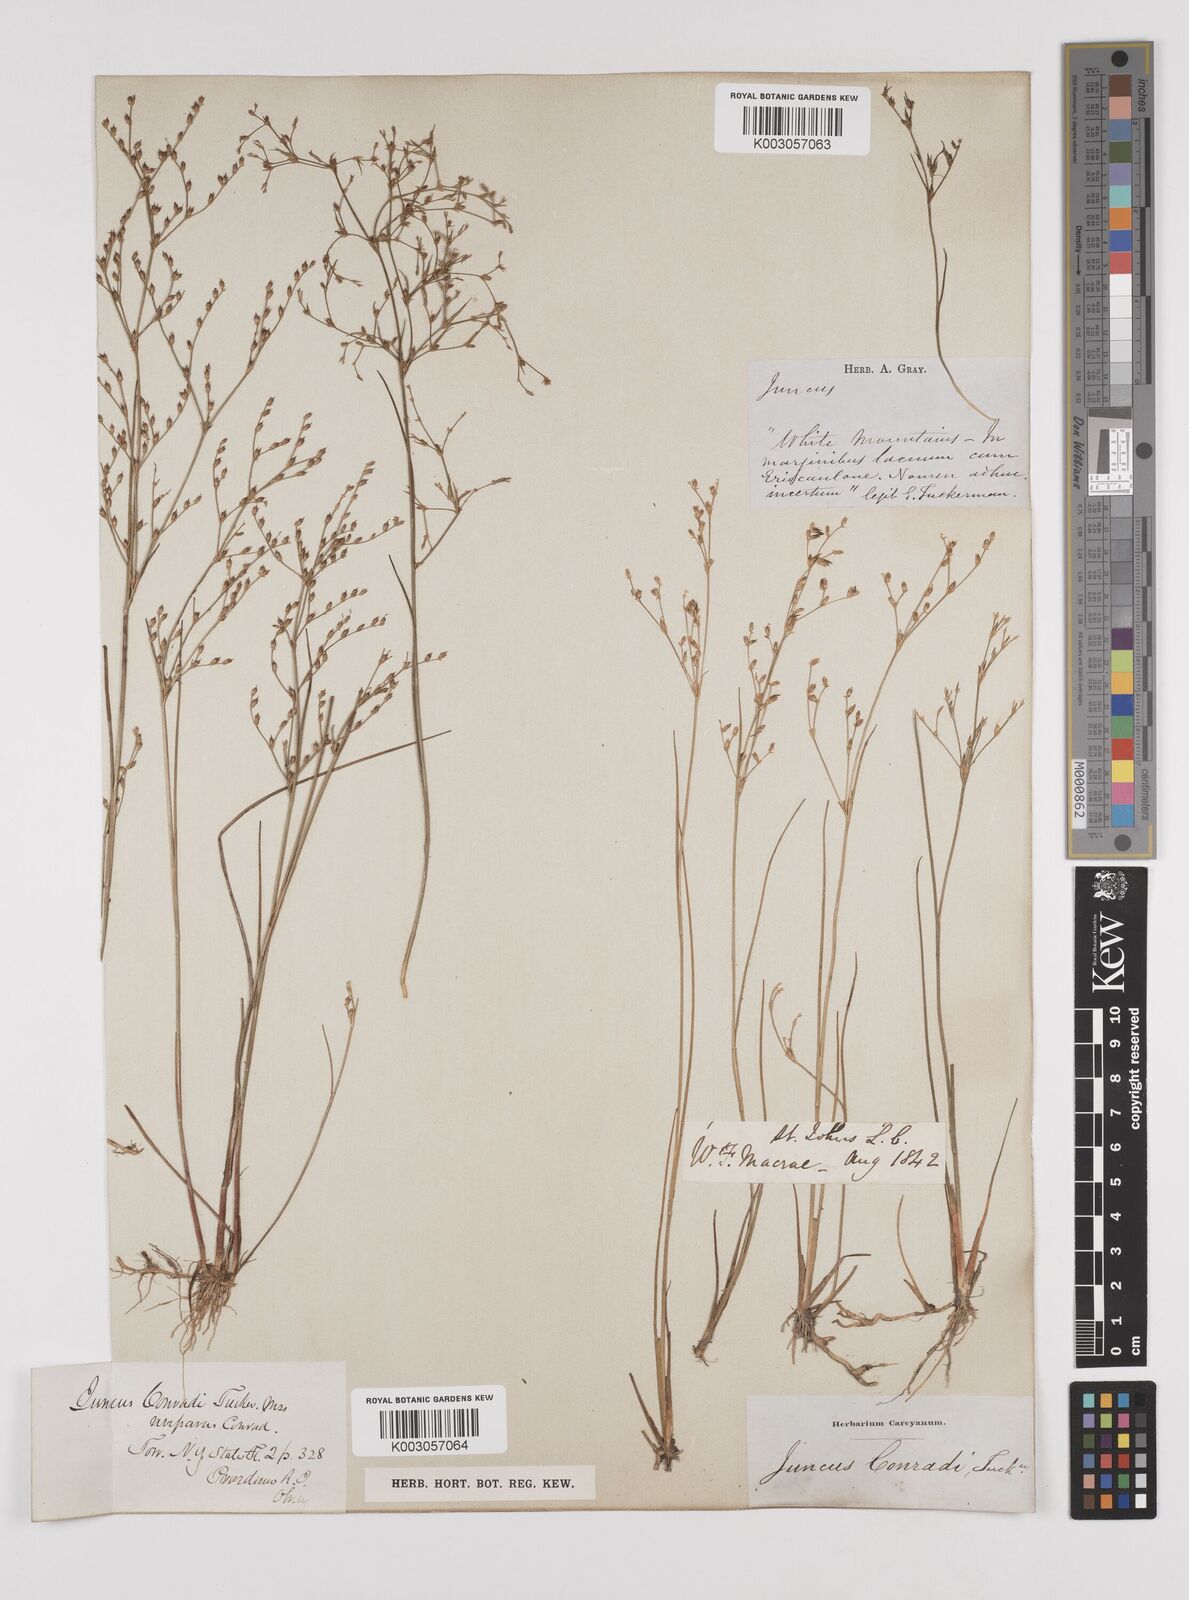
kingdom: Plantae
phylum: Tracheophyta
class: Liliopsida
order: Poales
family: Juncaceae
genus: Juncus
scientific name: Juncus pelocarpus
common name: Brown-fruited rush
